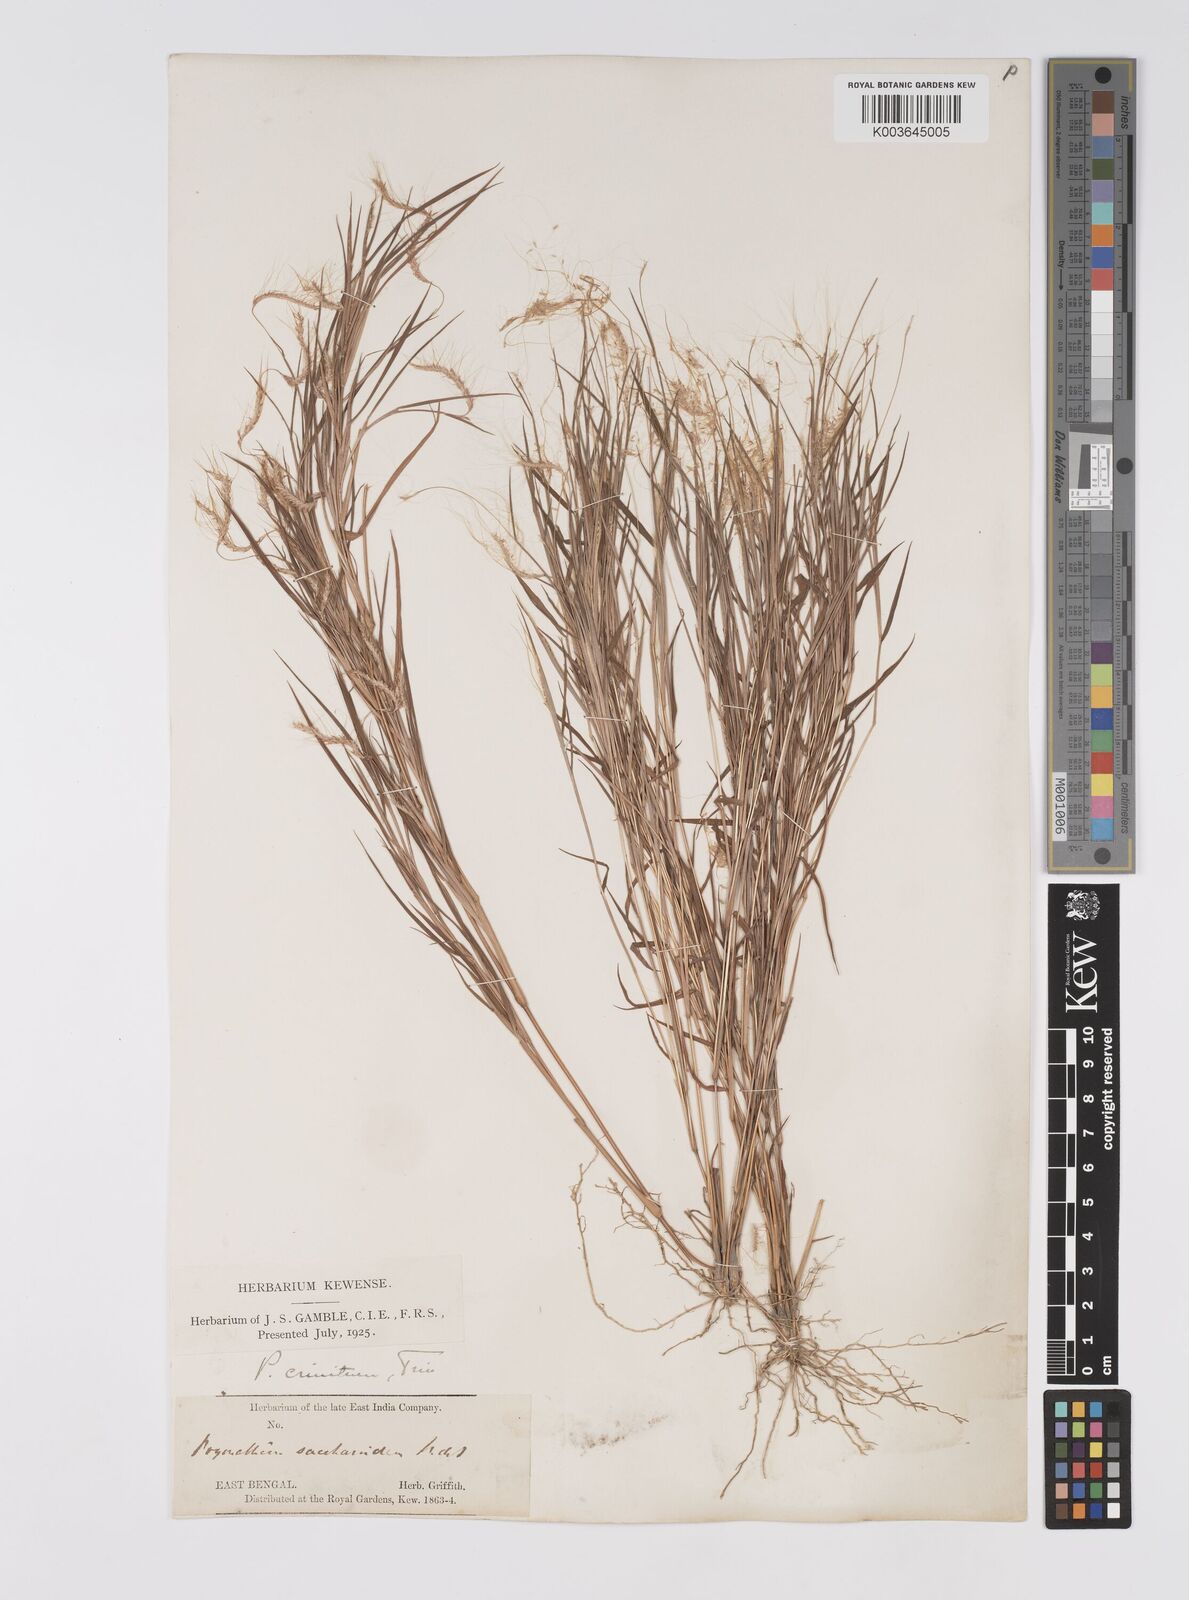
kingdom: Plantae
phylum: Tracheophyta
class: Liliopsida
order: Poales
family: Poaceae
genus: Pogonatherum
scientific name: Pogonatherum crinitum
